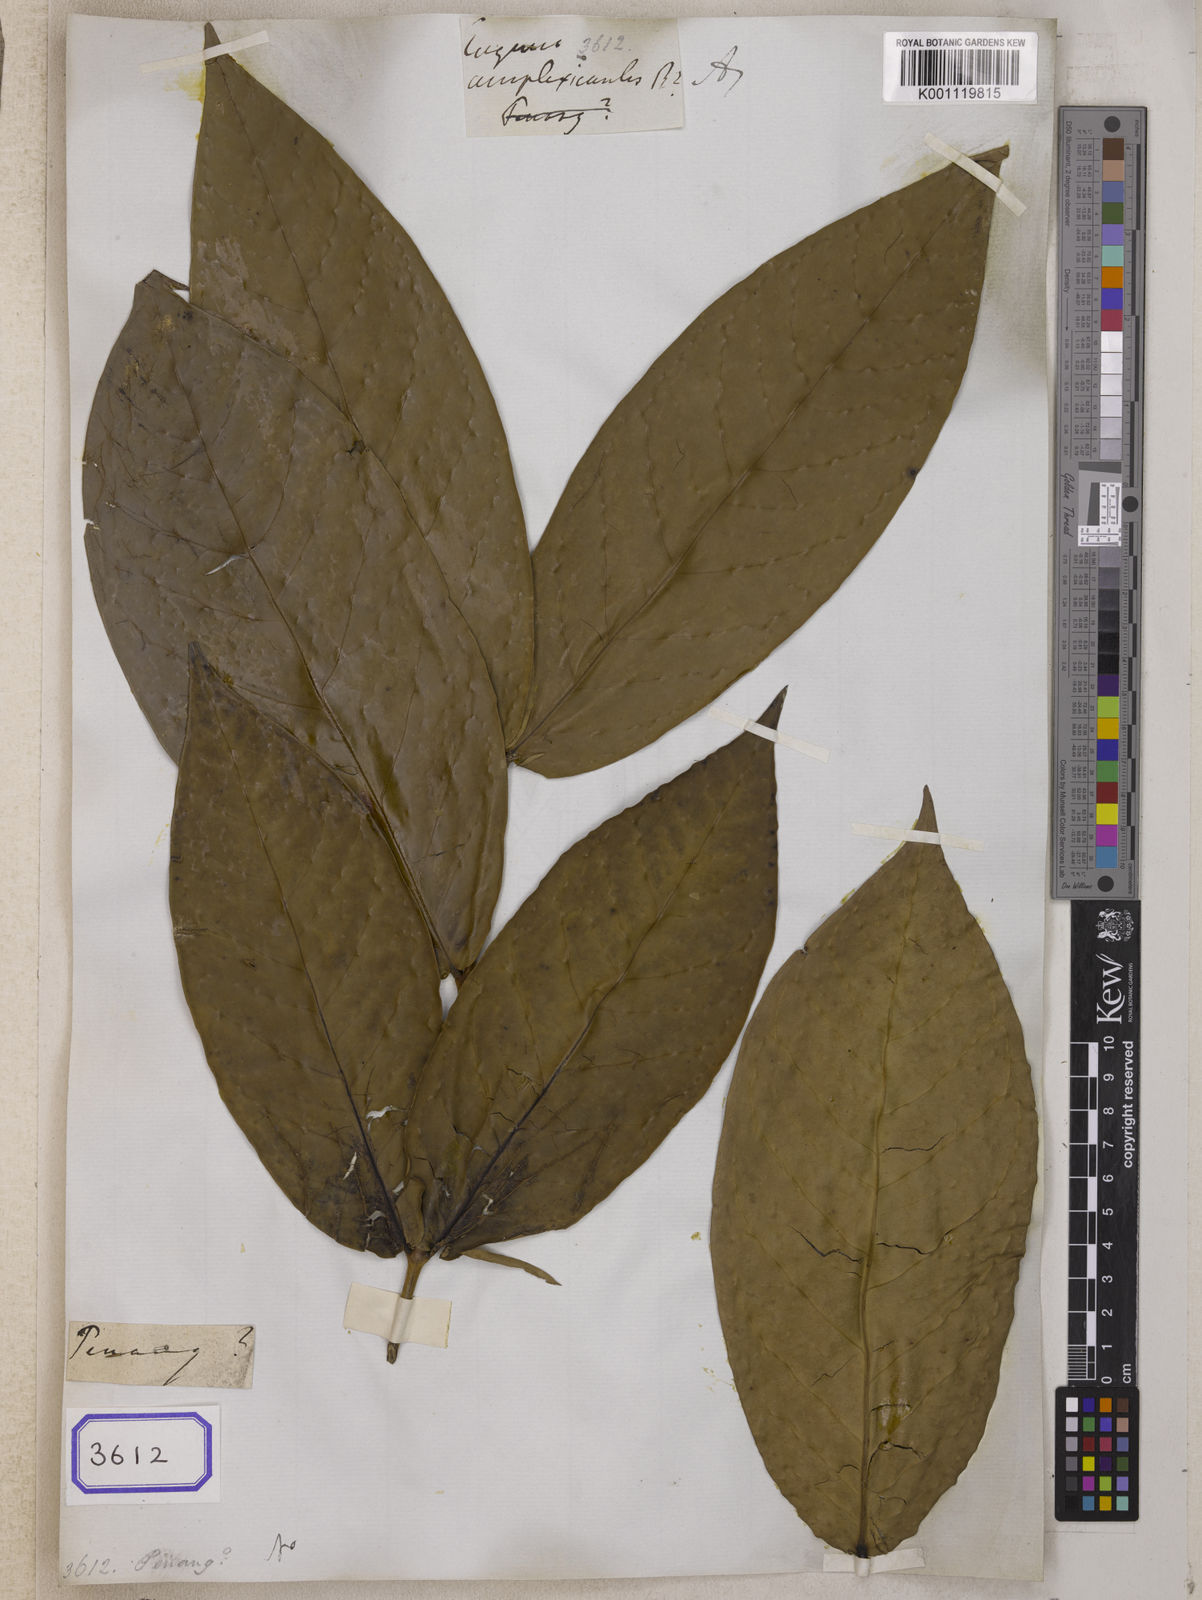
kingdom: Plantae
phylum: Tracheophyta
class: Magnoliopsida
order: Myrtales
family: Myrtaceae
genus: Eugenia
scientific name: Eugenia
